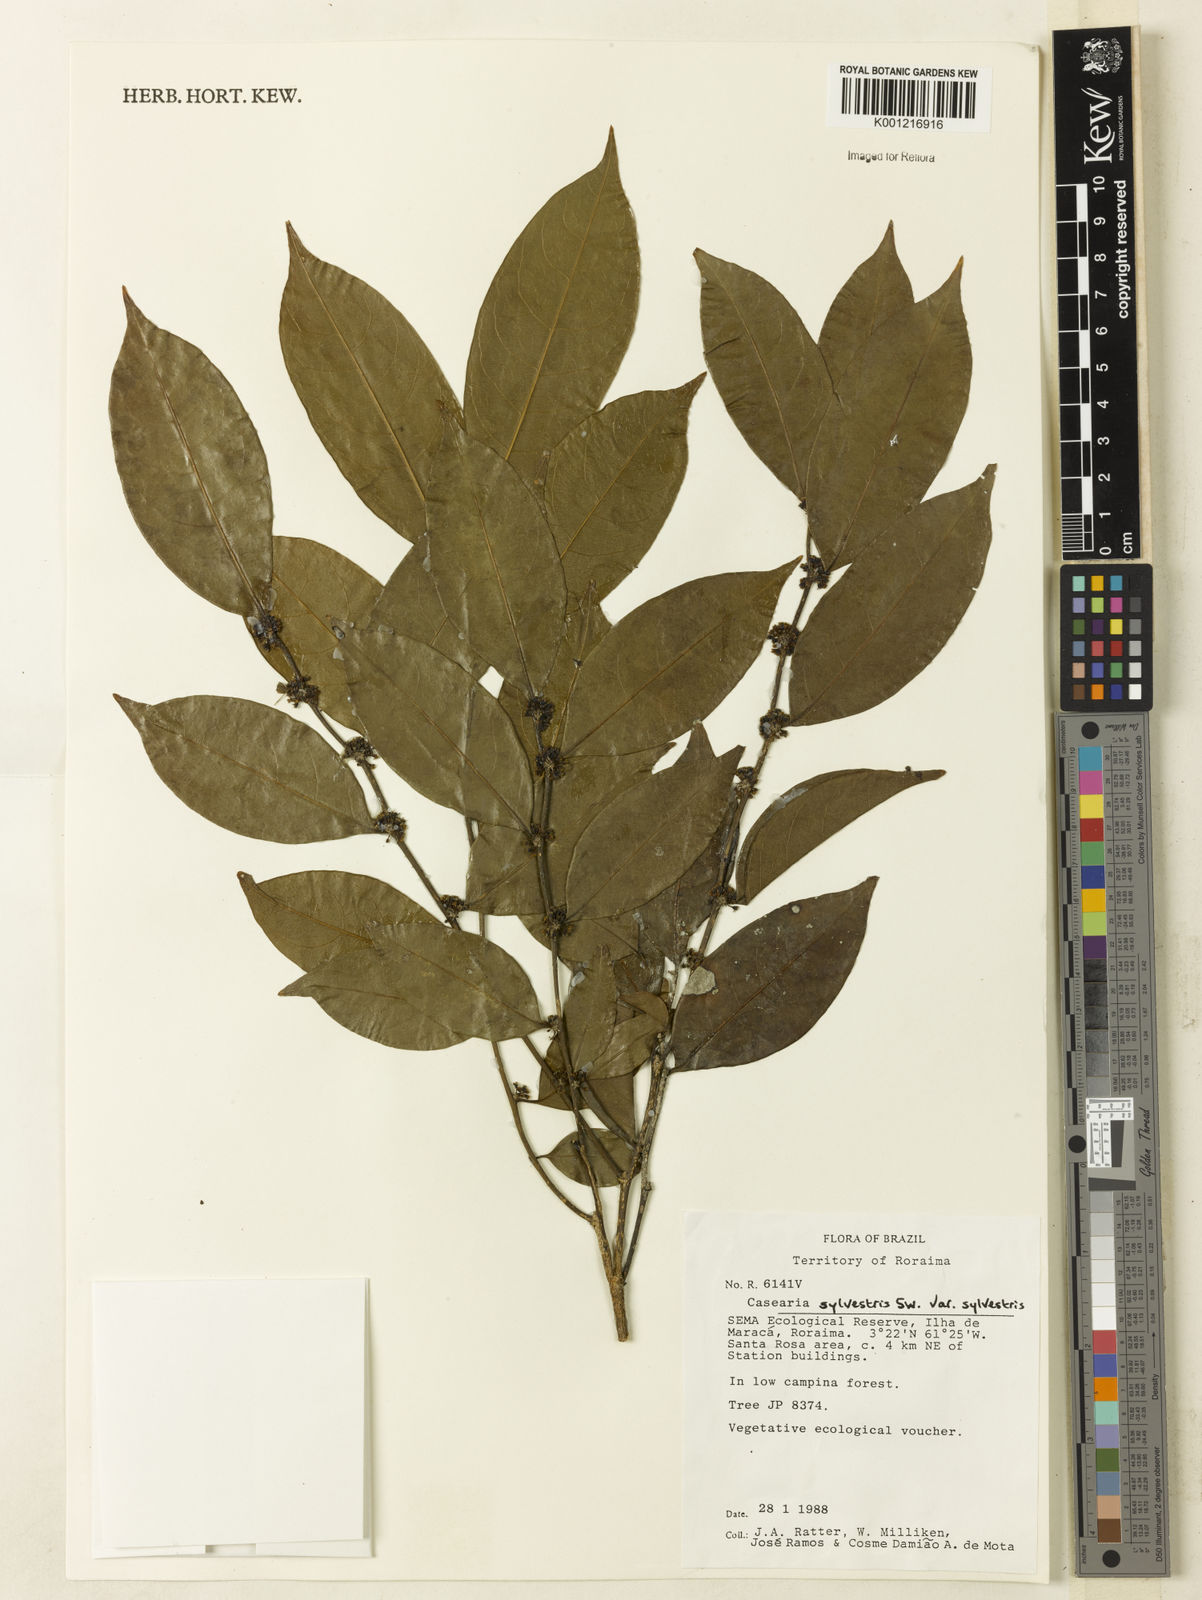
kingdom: Plantae
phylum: Tracheophyta
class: Magnoliopsida
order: Malpighiales
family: Salicaceae
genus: Casearia
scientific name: Casearia sylvestris
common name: Wild sage
